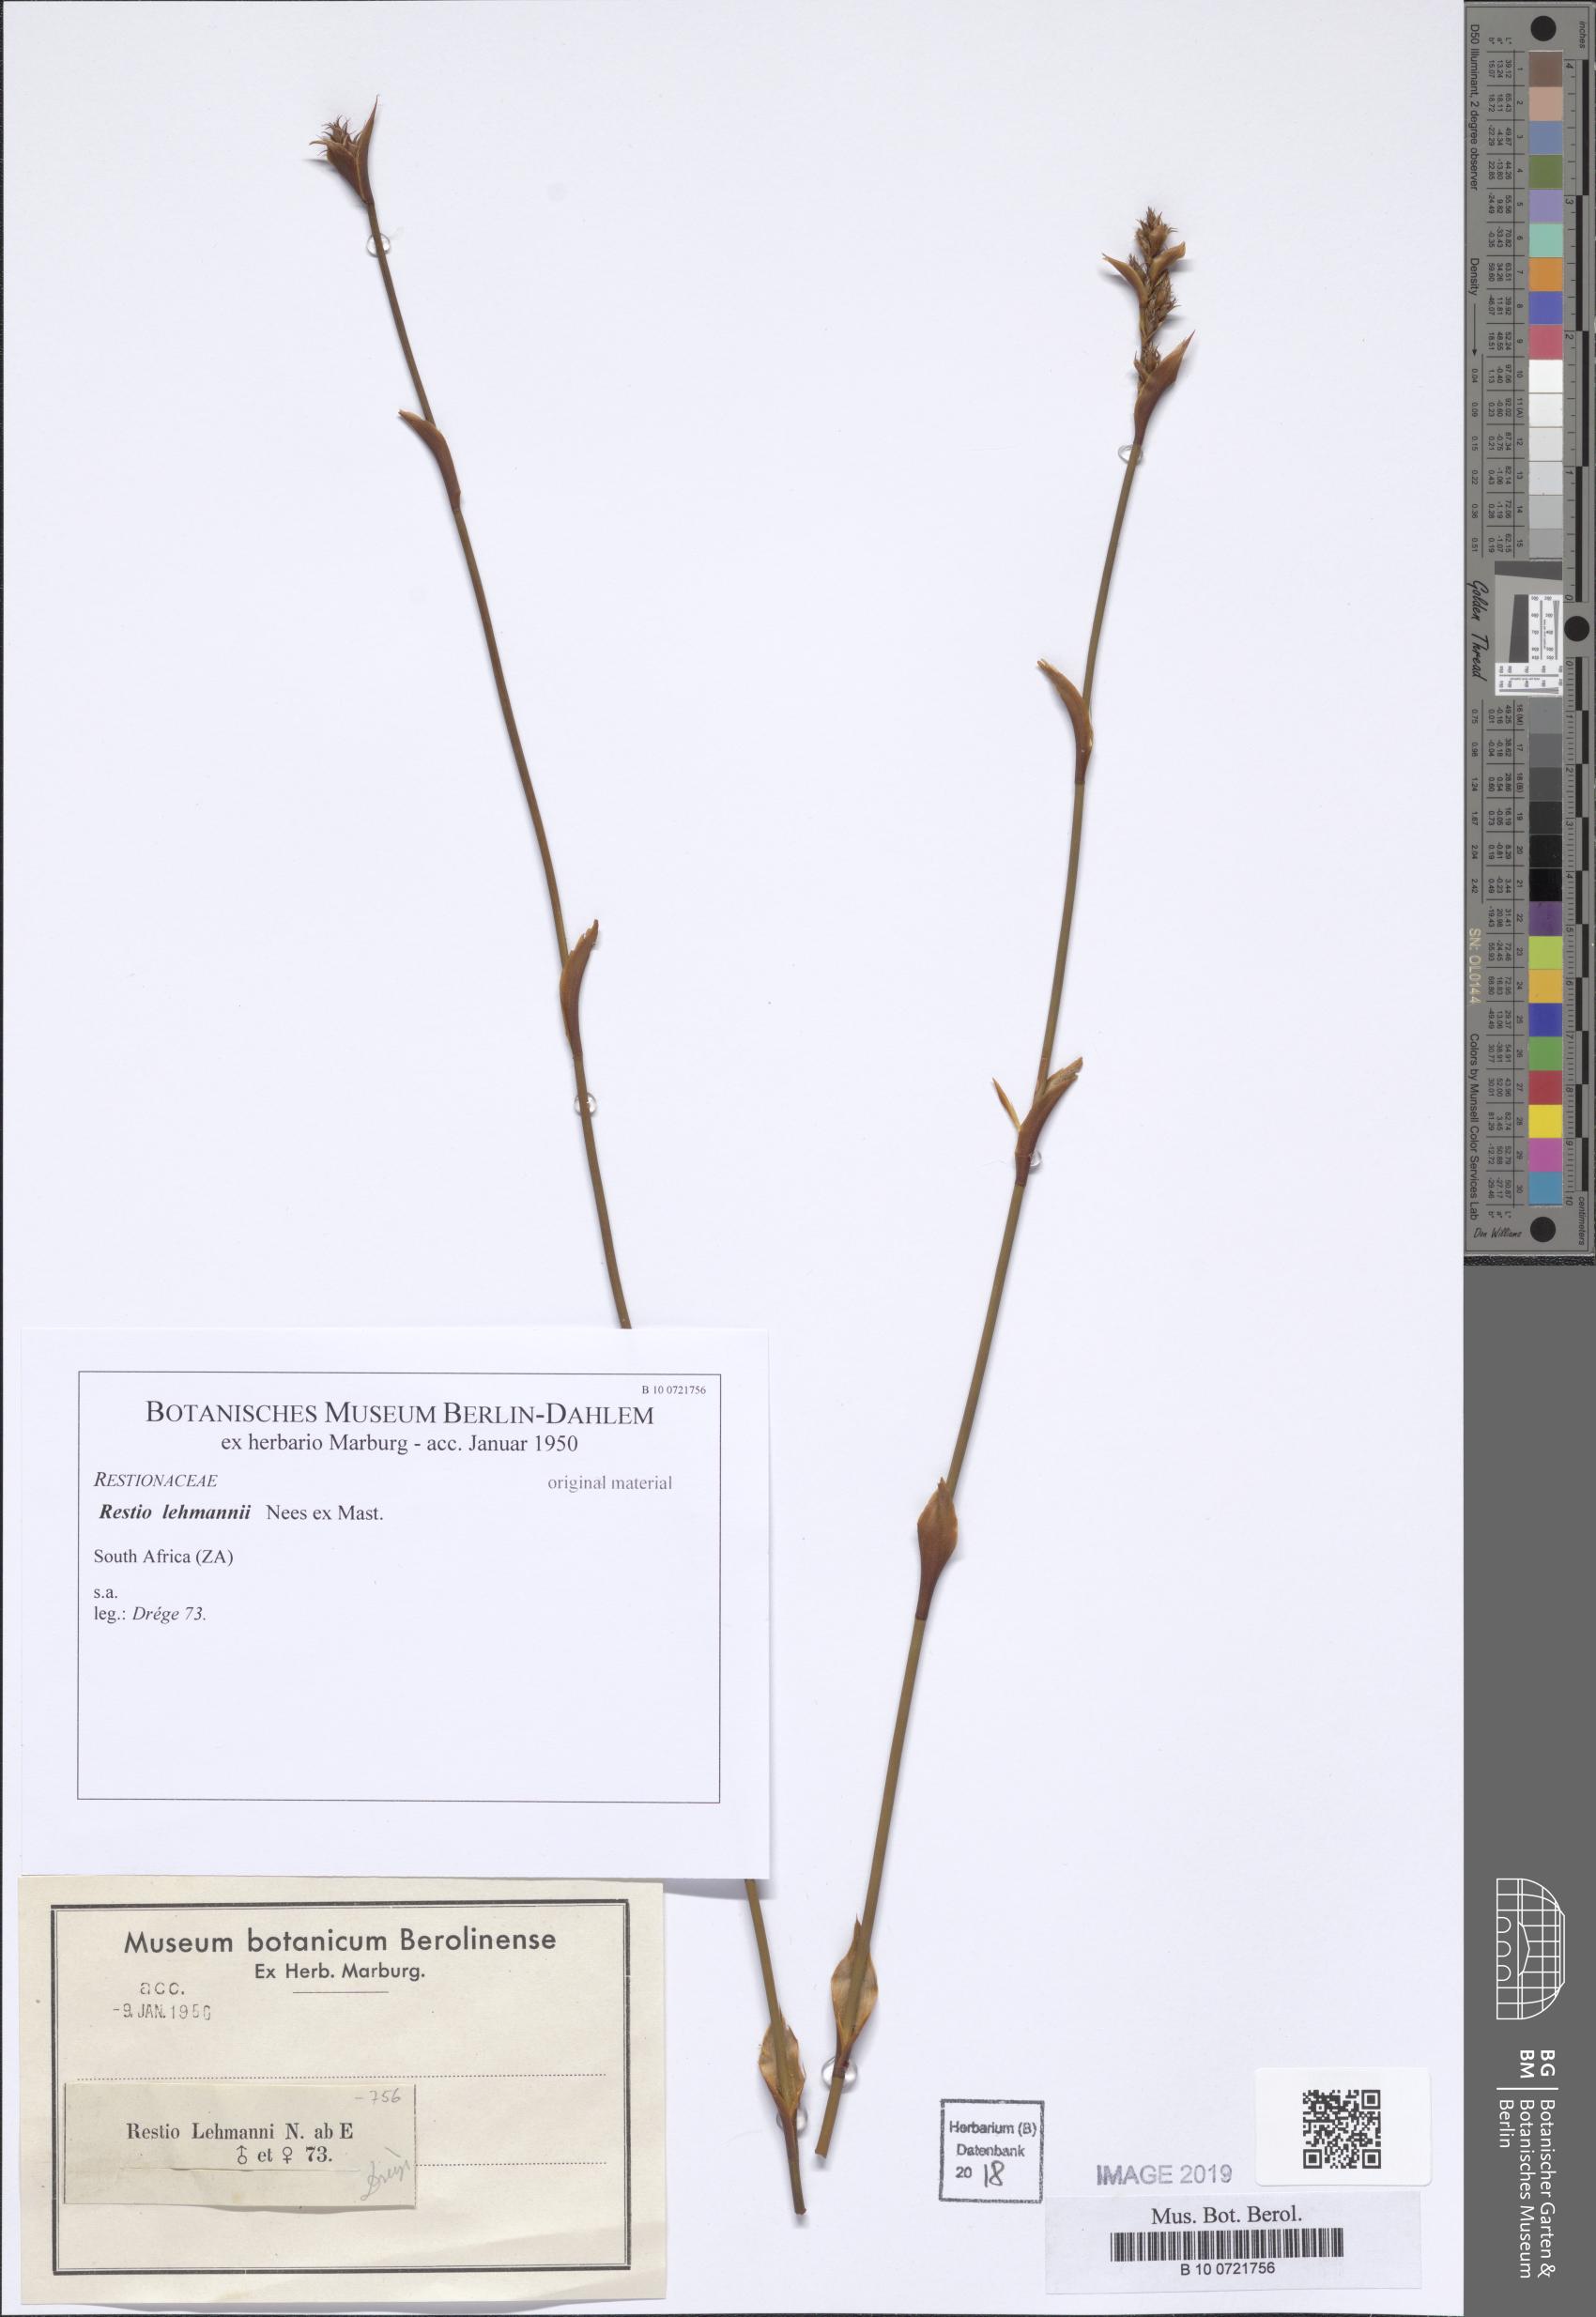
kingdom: Plantae
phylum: Tracheophyta
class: Liliopsida
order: Poales
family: Restionaceae
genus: Restio
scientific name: Restio ocreatus
